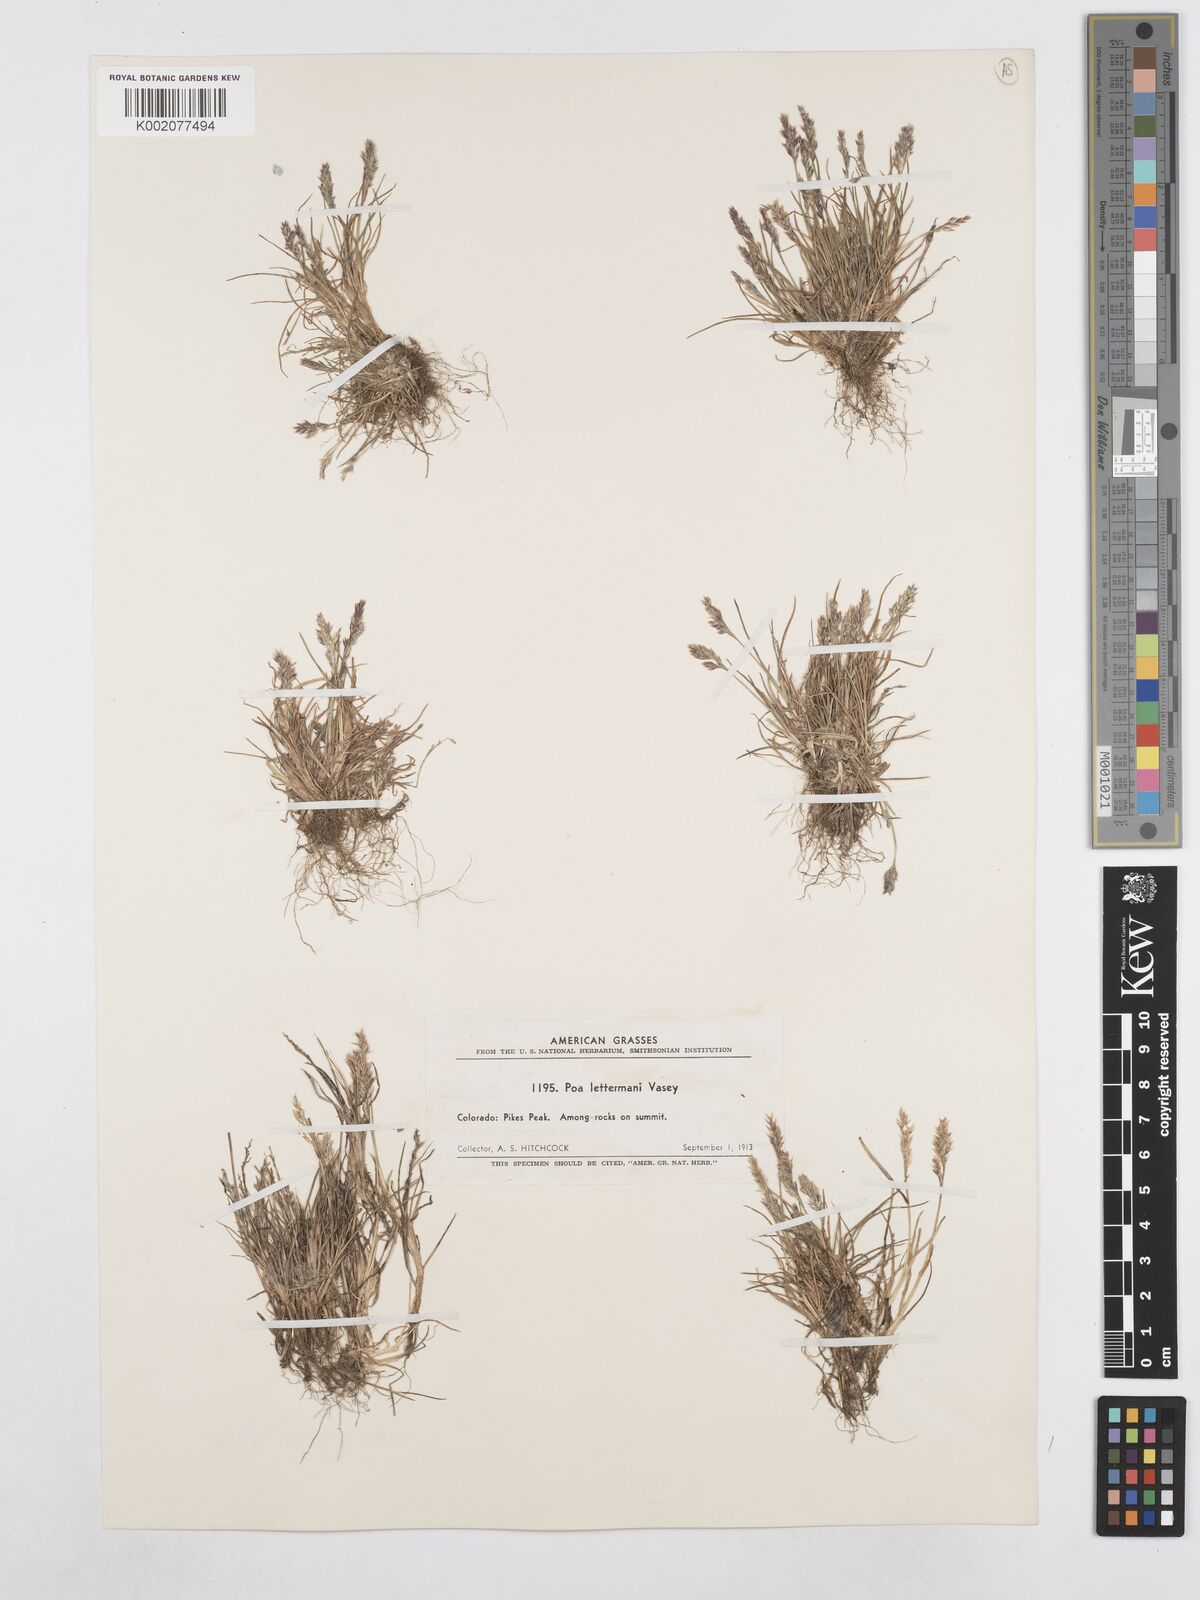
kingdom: Plantae
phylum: Tracheophyta
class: Liliopsida
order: Poales
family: Poaceae
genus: Poa
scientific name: Poa lettermanii
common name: Letterman's bluegrass
